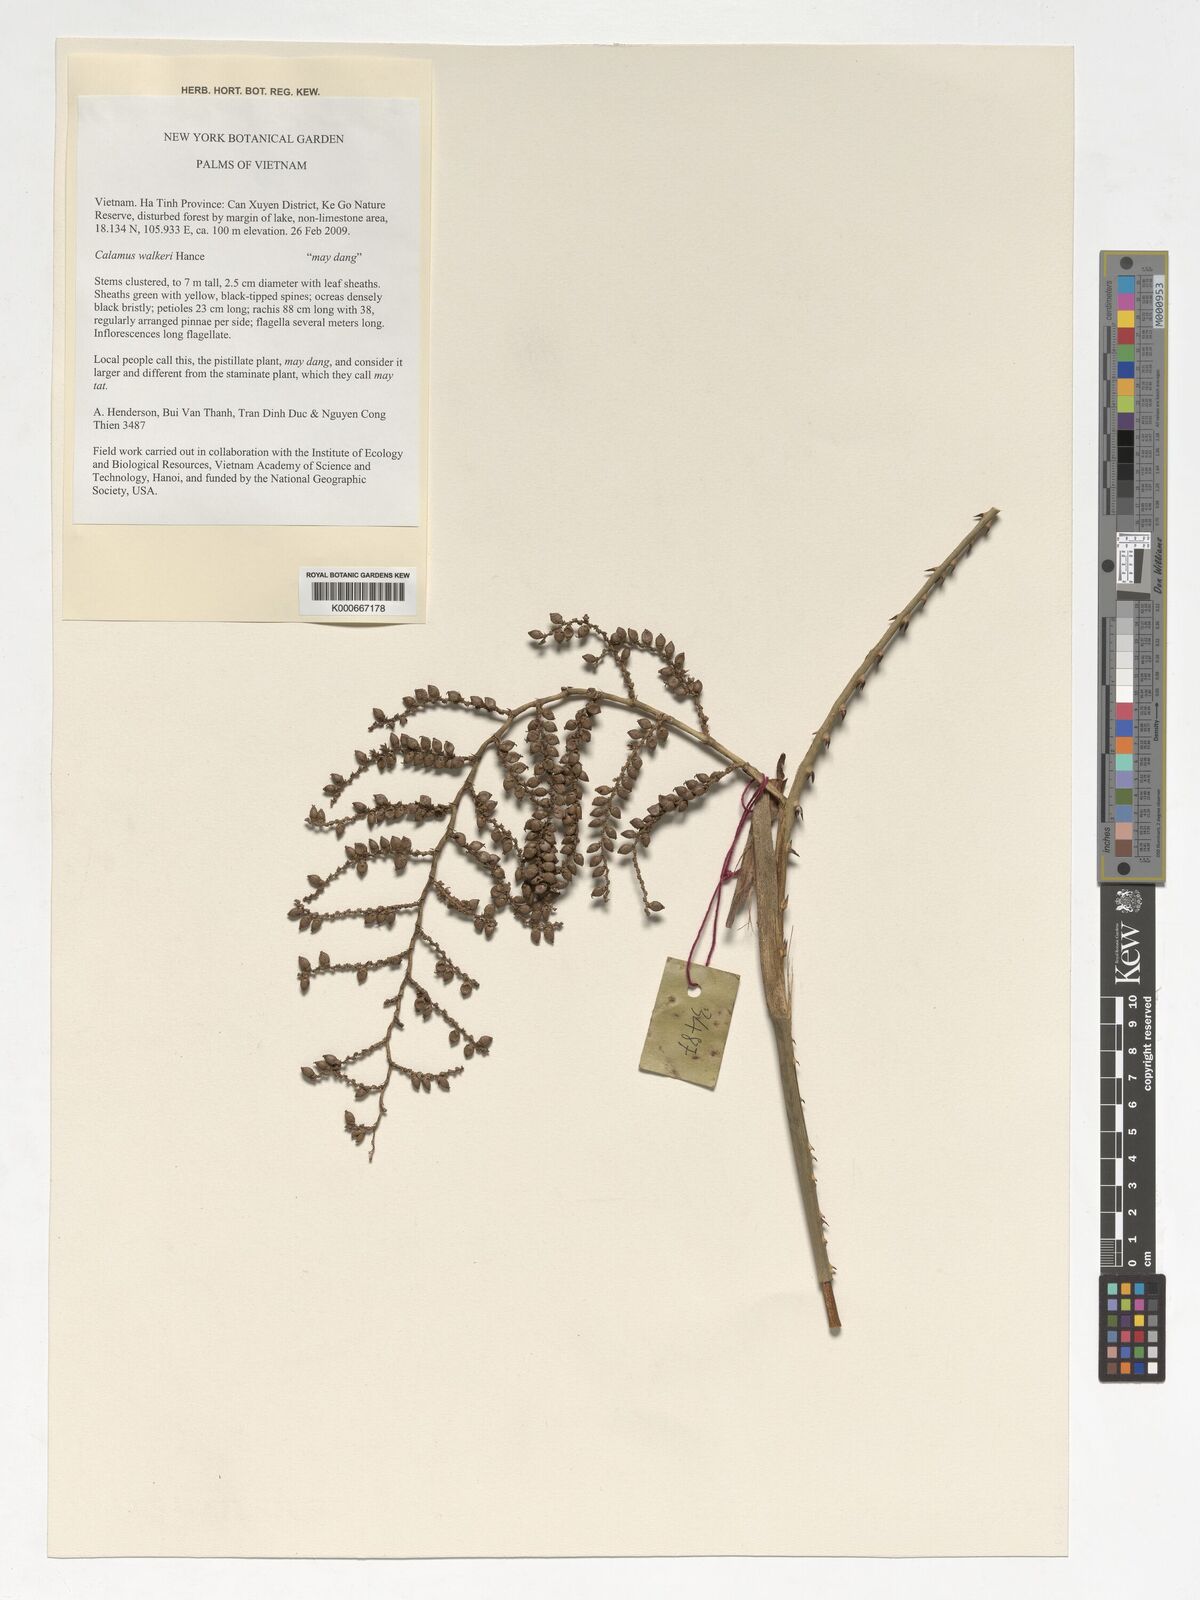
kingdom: Plantae
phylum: Tracheophyta
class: Liliopsida
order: Arecales
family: Arecaceae
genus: Calamus
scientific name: Calamus walkeri
